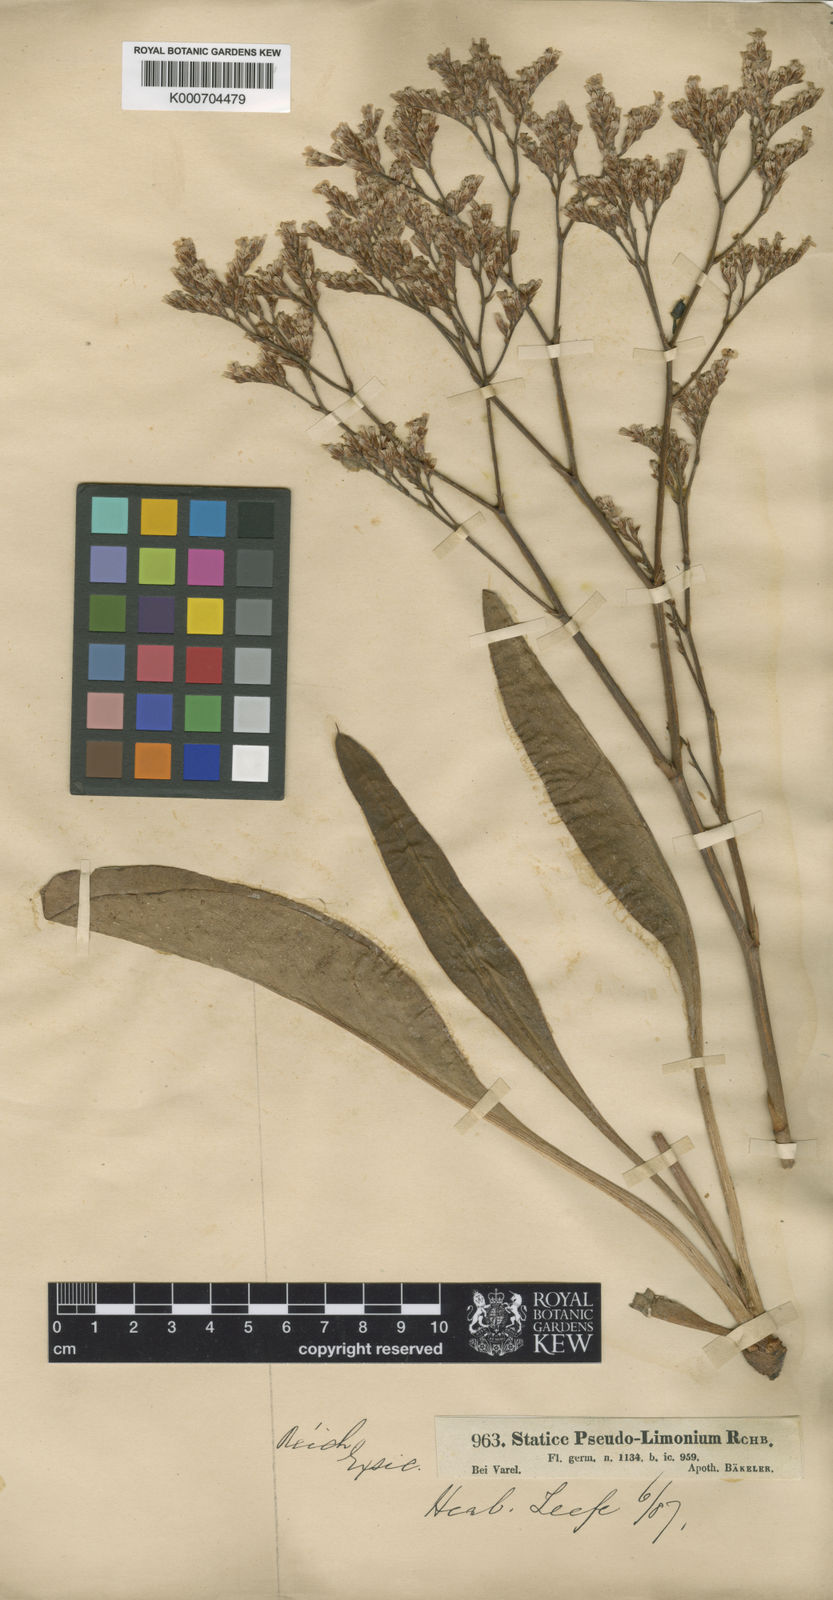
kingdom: Plantae
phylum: Tracheophyta
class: Magnoliopsida
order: Caryophyllales
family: Plumbaginaceae
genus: Limonium
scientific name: Limonium
